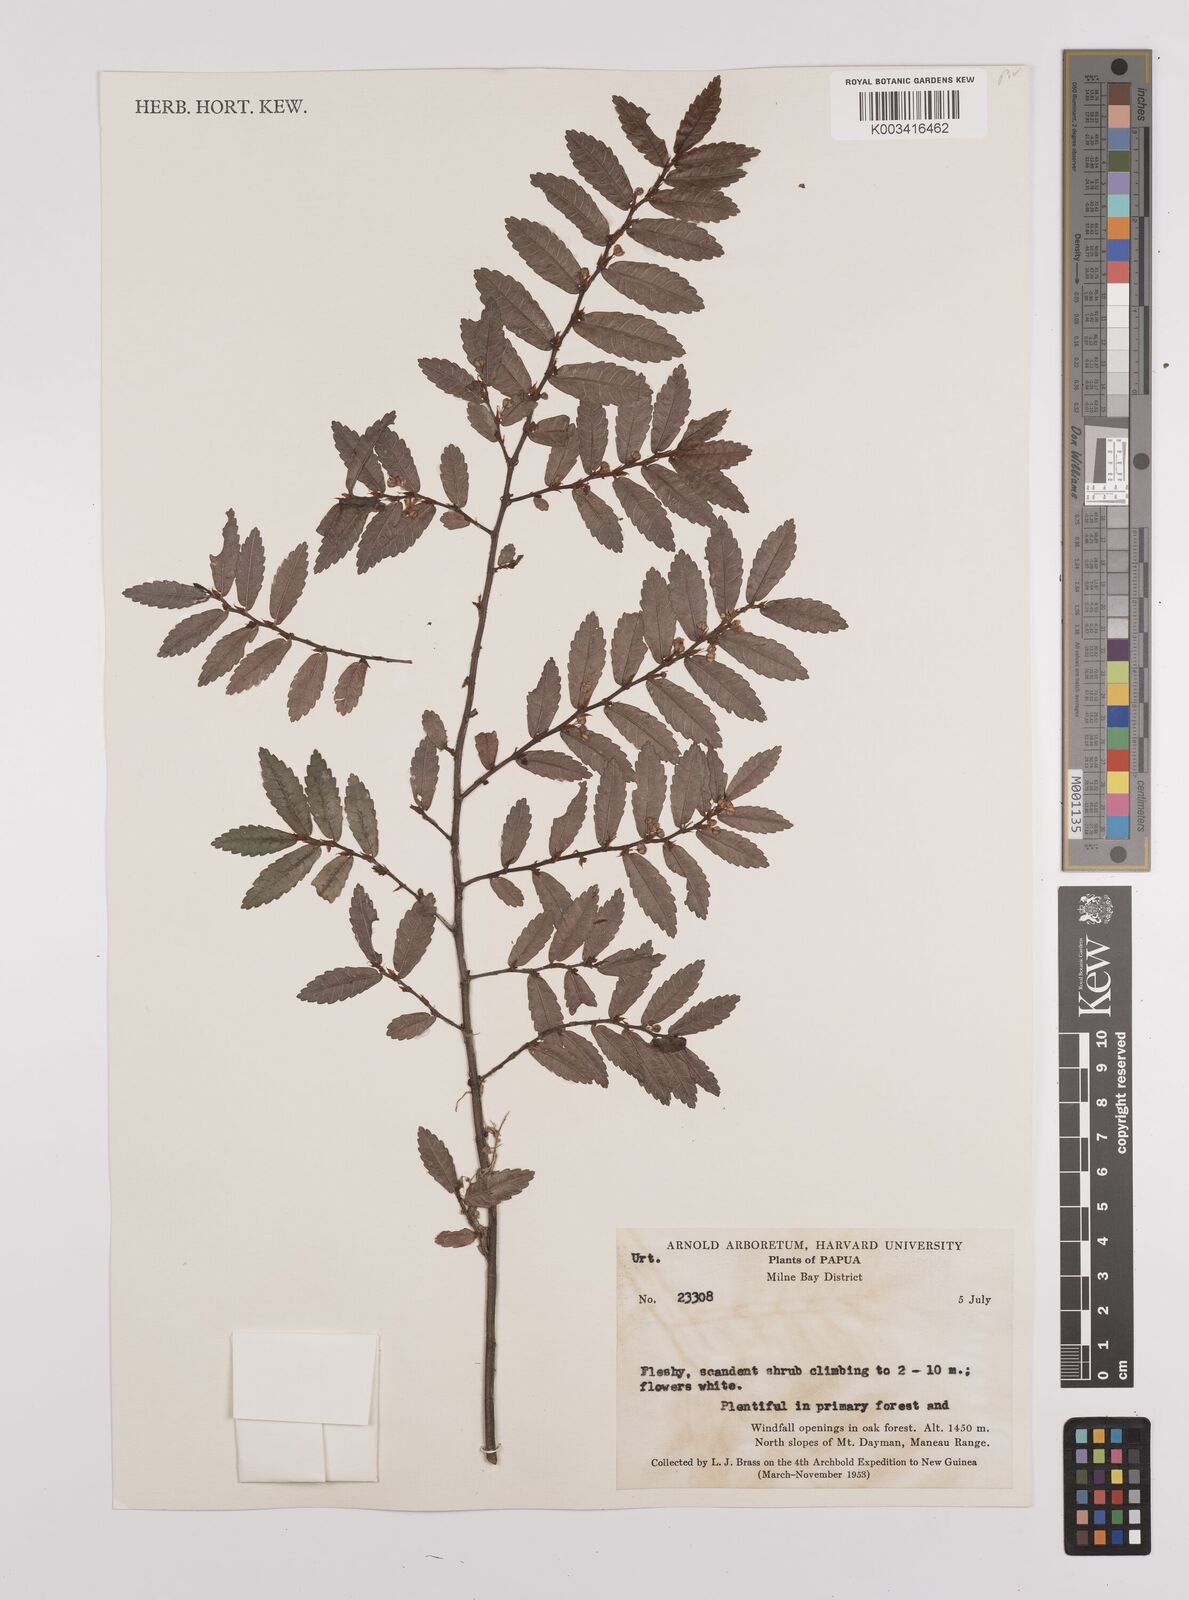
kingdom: Plantae
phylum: Tracheophyta
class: Magnoliopsida
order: Rosales
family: Urticaceae
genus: Elatostema
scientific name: Elatostema
